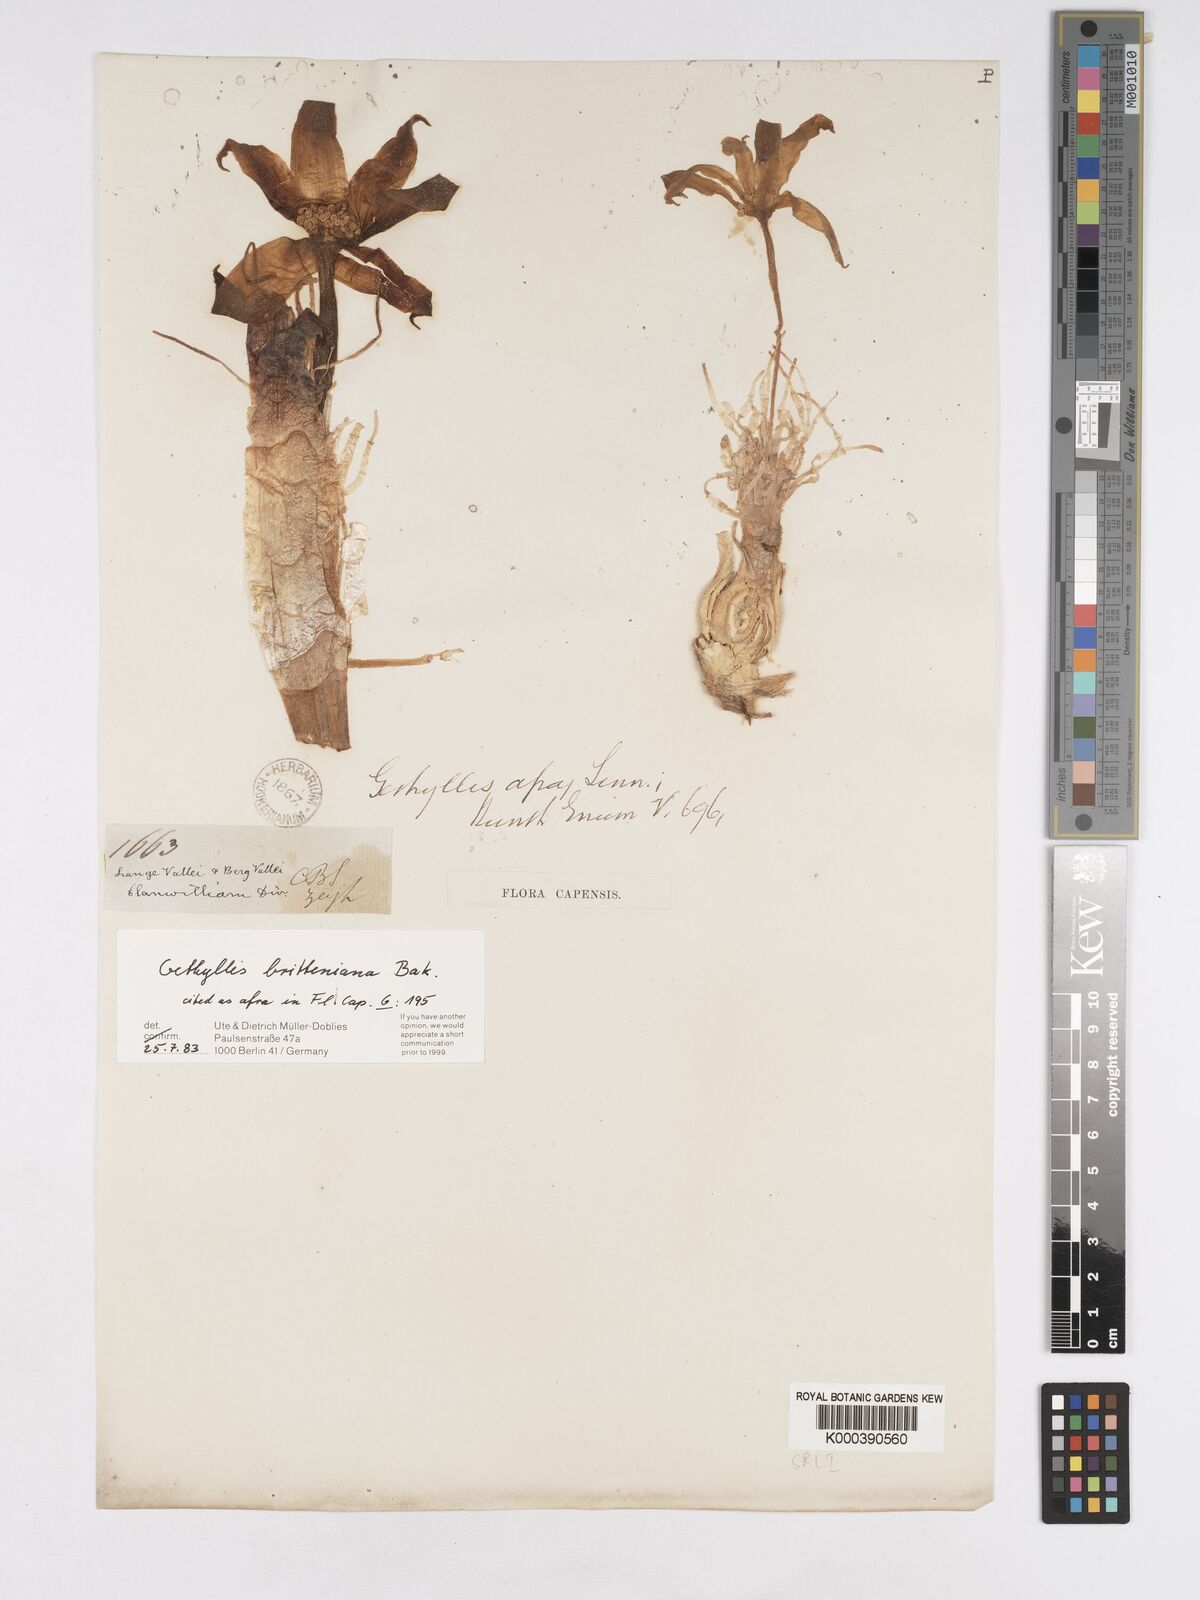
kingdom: Plantae
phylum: Tracheophyta
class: Liliopsida
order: Asparagales
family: Amaryllidaceae
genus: Gethyllis
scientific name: Gethyllis britteniana
